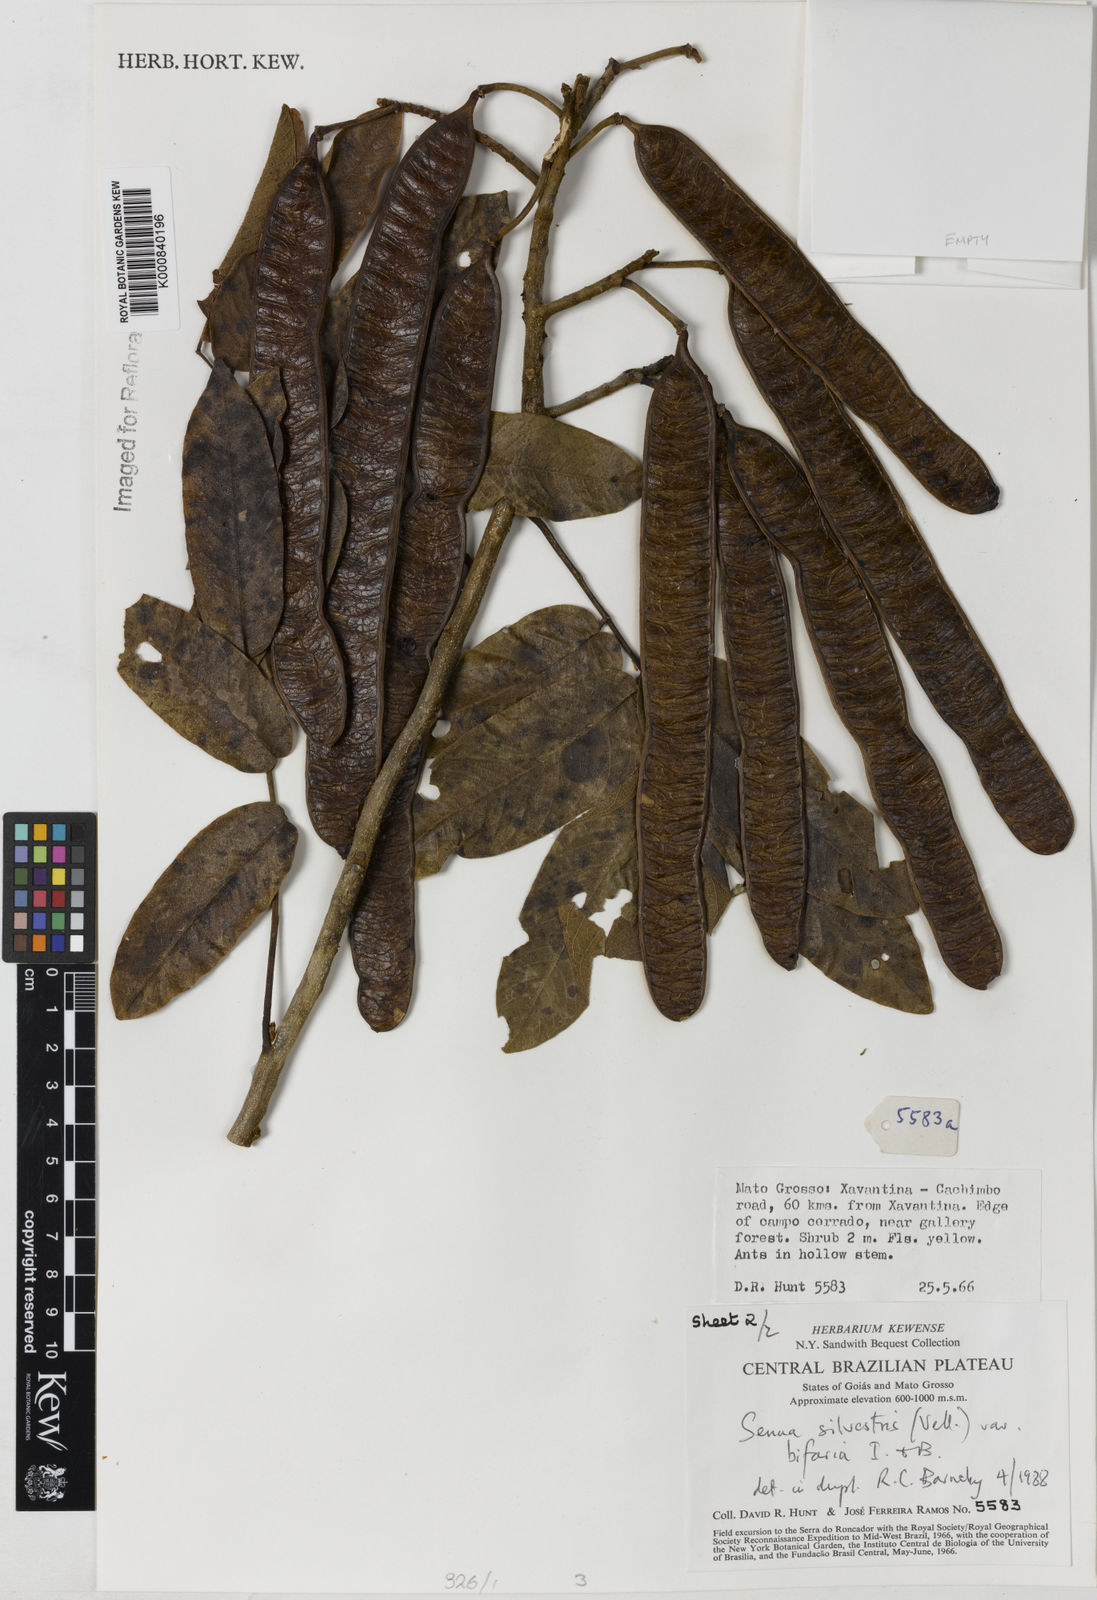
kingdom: Plantae
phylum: Tracheophyta
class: Magnoliopsida
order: Fabales
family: Fabaceae
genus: Senna
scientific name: Senna silvestris
